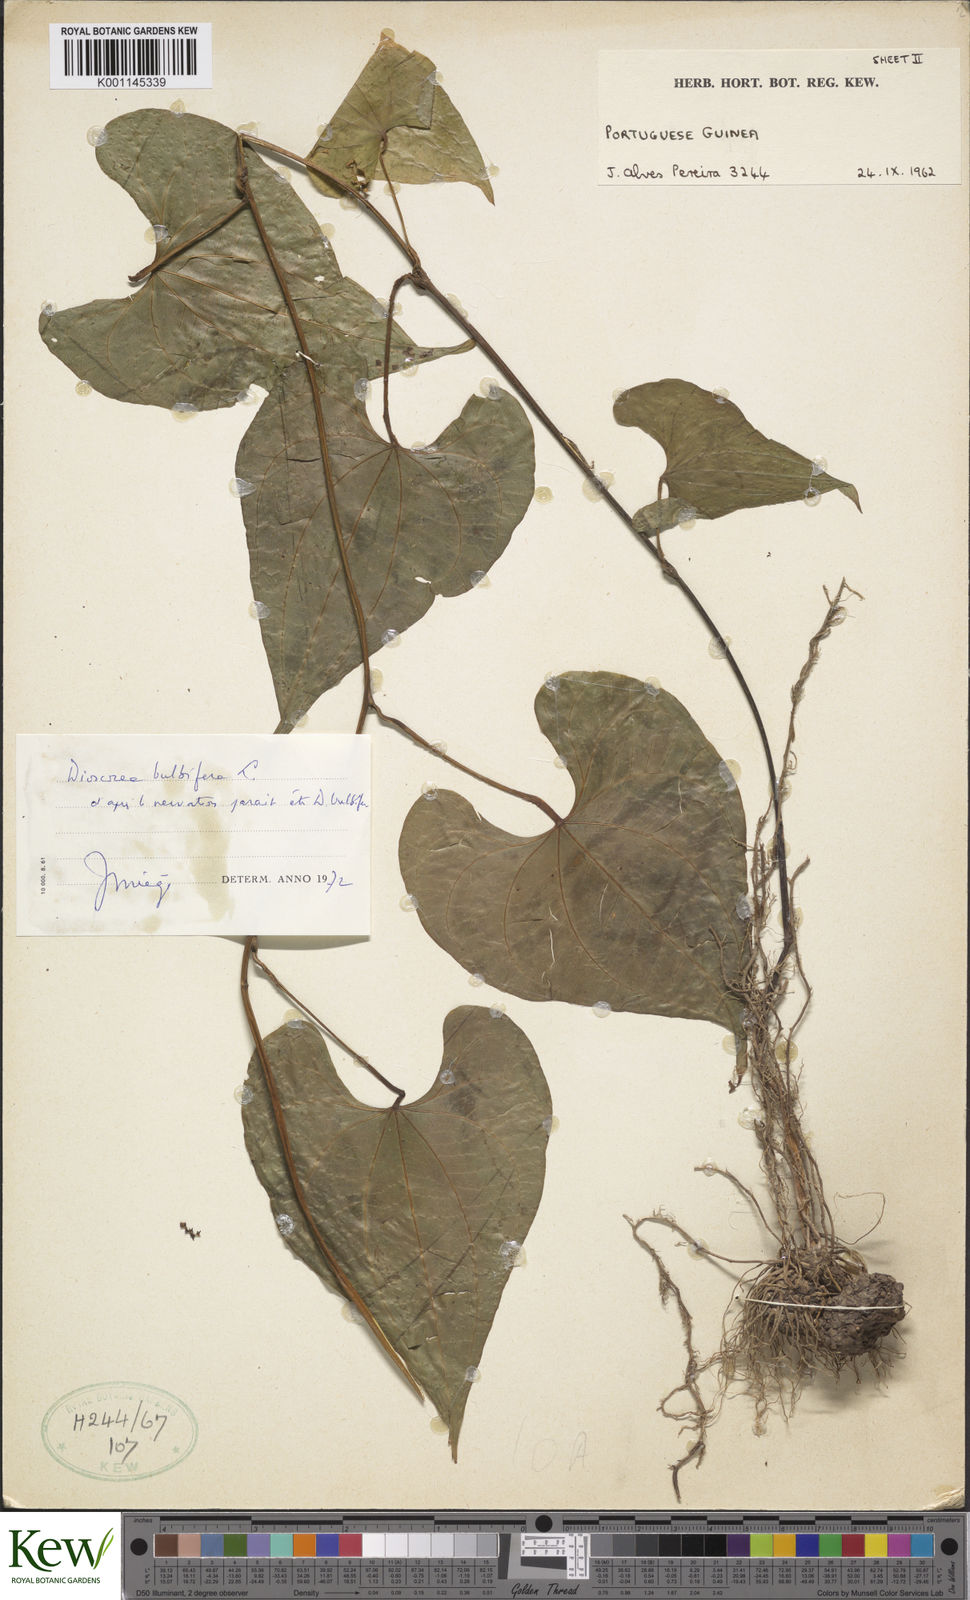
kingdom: Plantae
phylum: Tracheophyta
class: Liliopsida
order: Dioscoreales
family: Dioscoreaceae
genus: Dioscorea
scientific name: Dioscorea bulbifera
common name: Air yam
